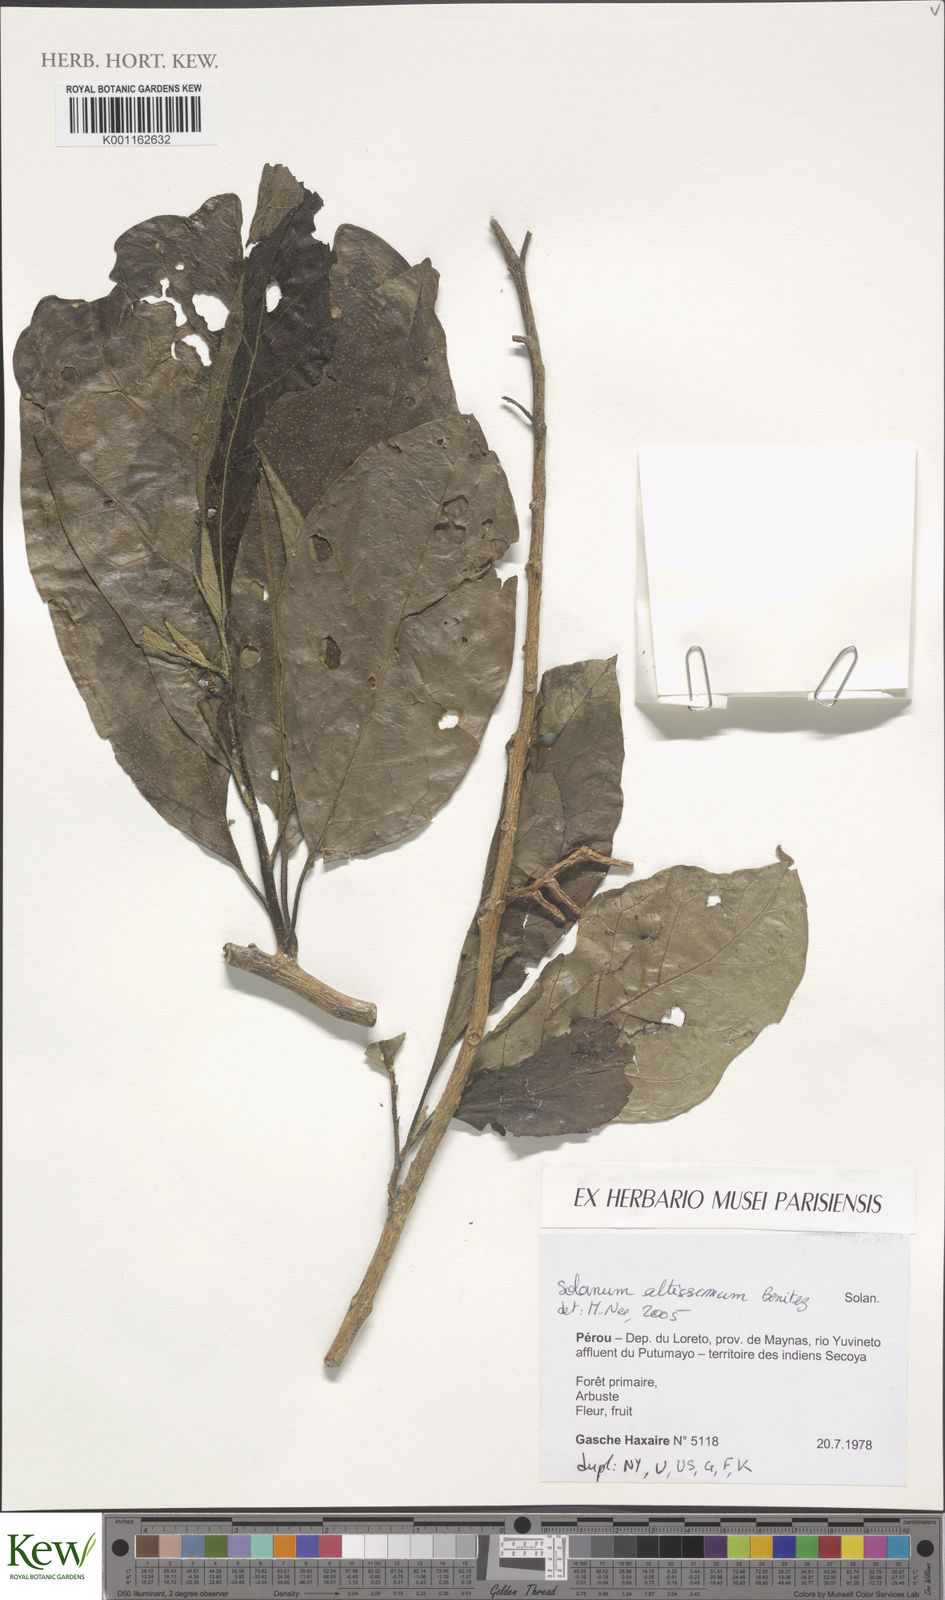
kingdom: Plantae
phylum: Tracheophyta
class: Magnoliopsida
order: Solanales
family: Solanaceae
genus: Solanum
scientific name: Solanum
